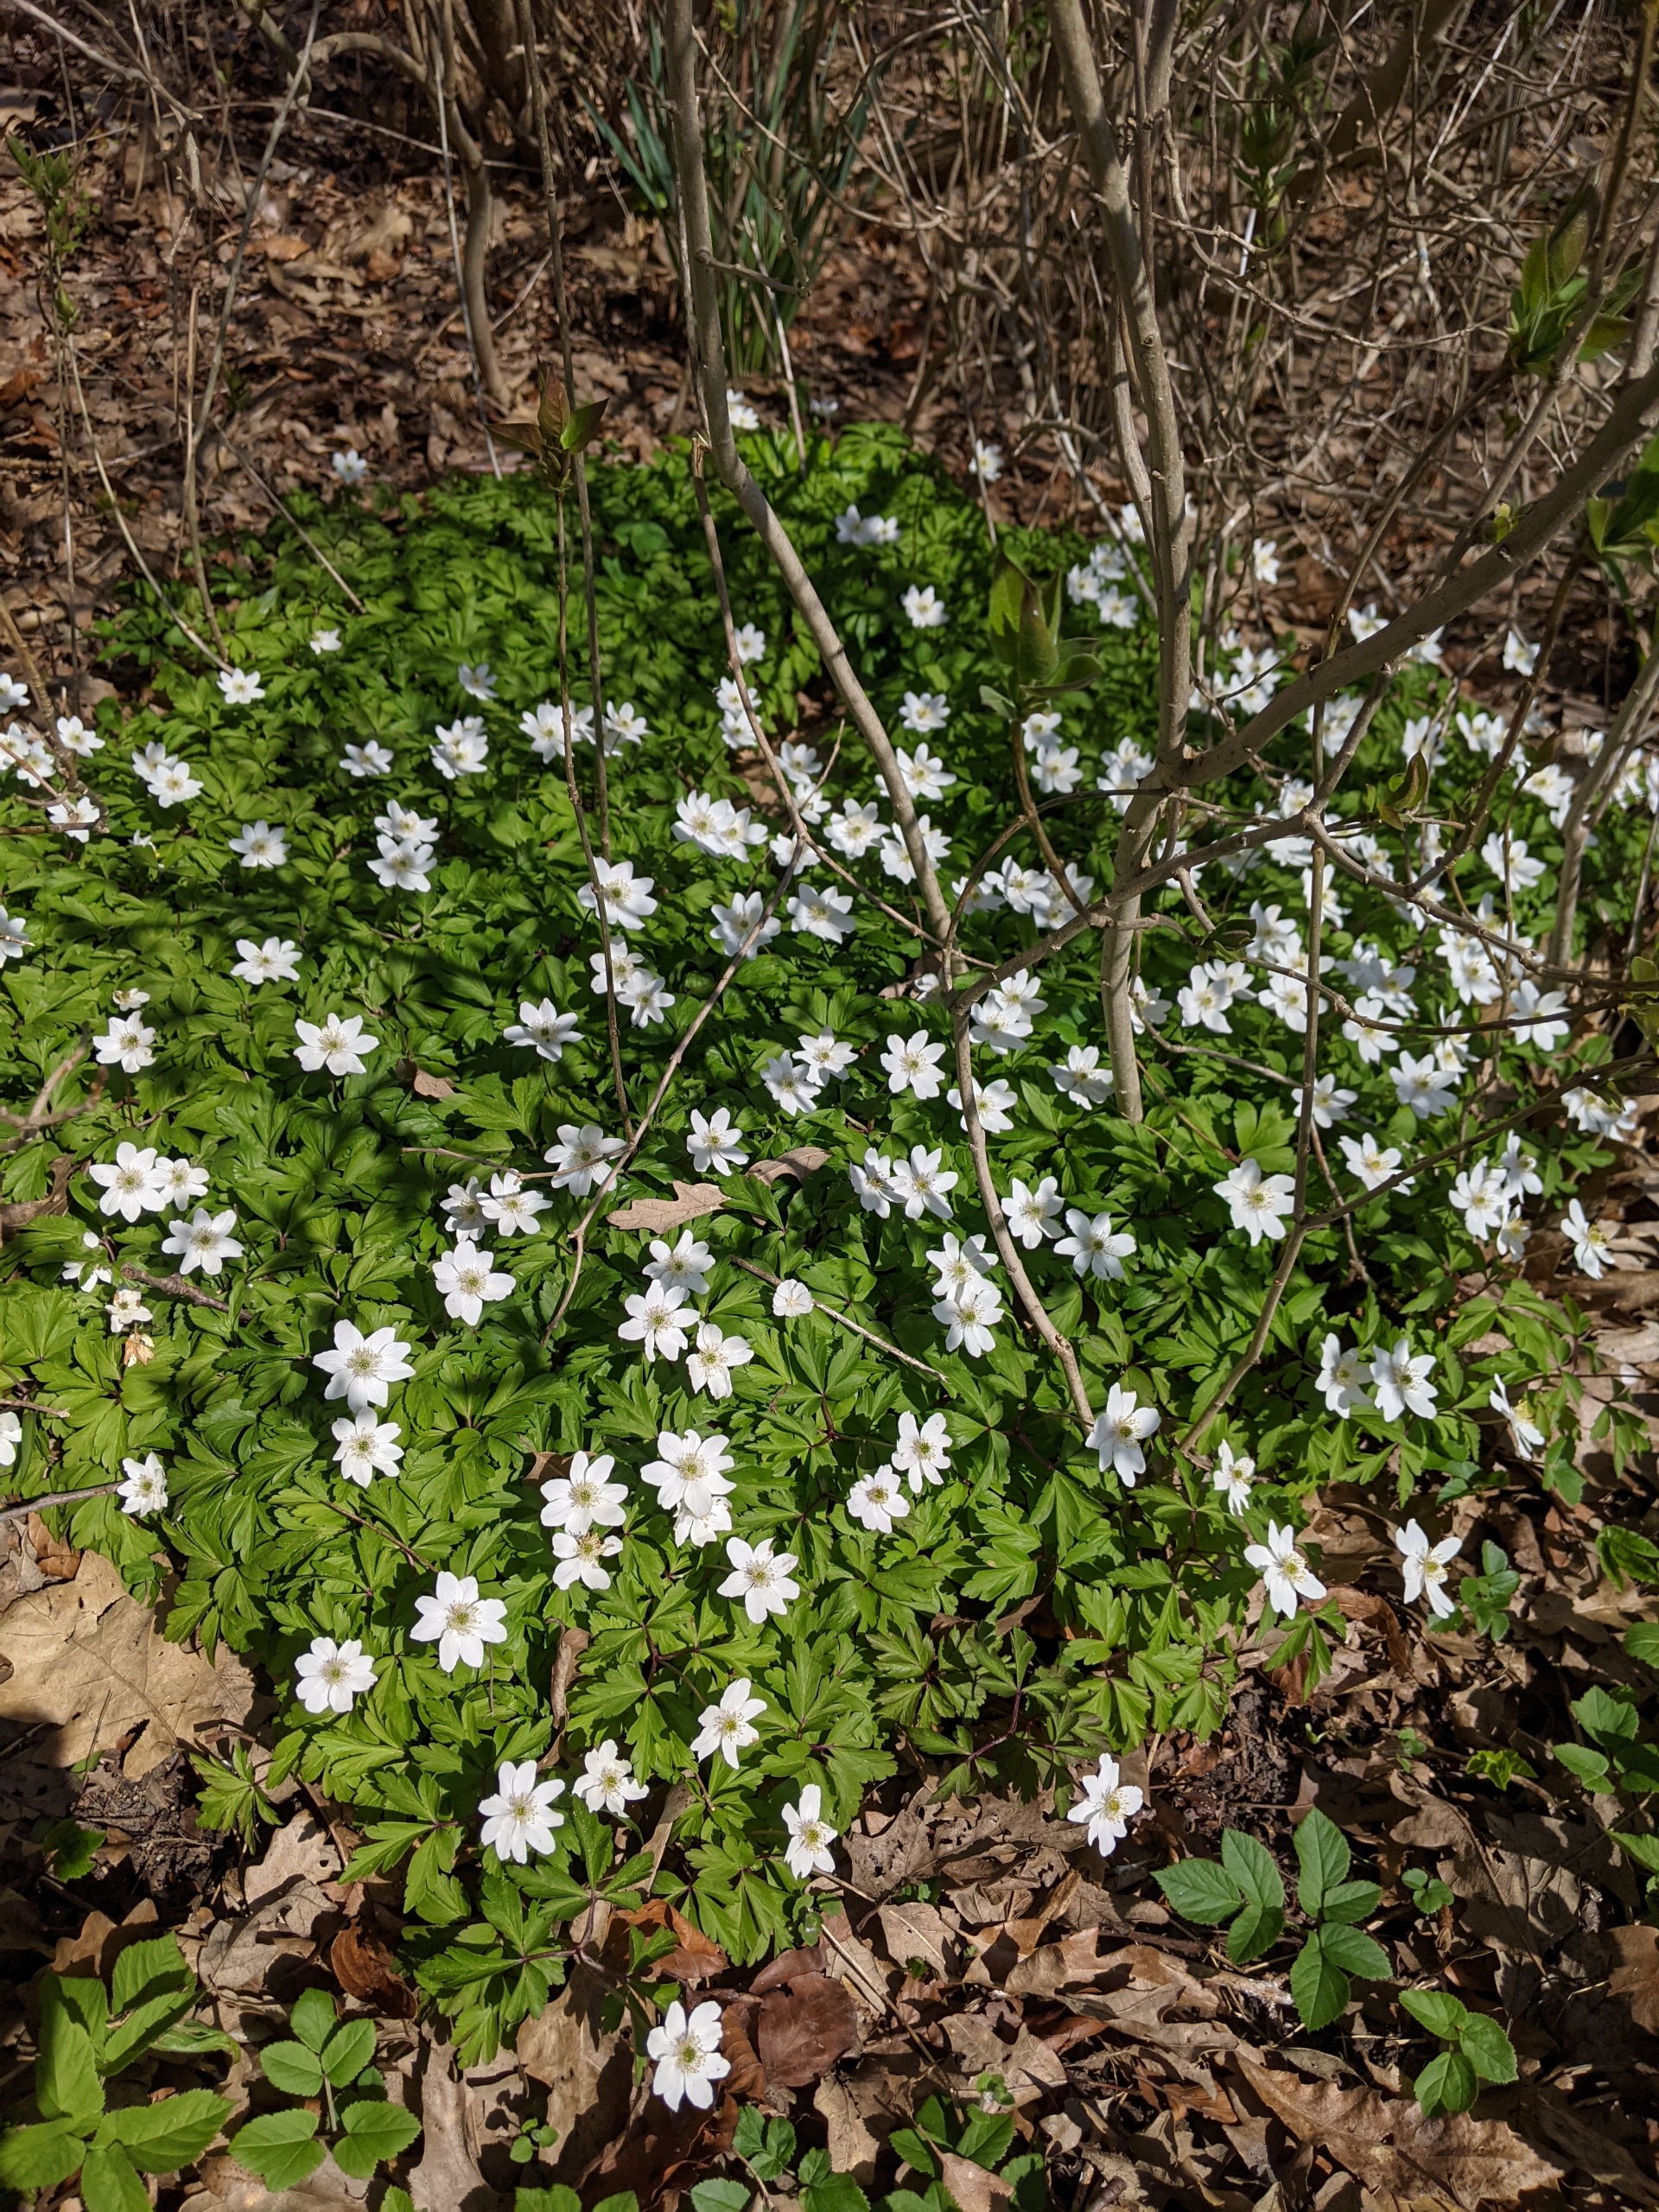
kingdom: Plantae
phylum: Tracheophyta
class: Magnoliopsida
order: Ranunculales
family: Ranunculaceae
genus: Anemone
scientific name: Anemone nemorosa
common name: Hvid anemone
